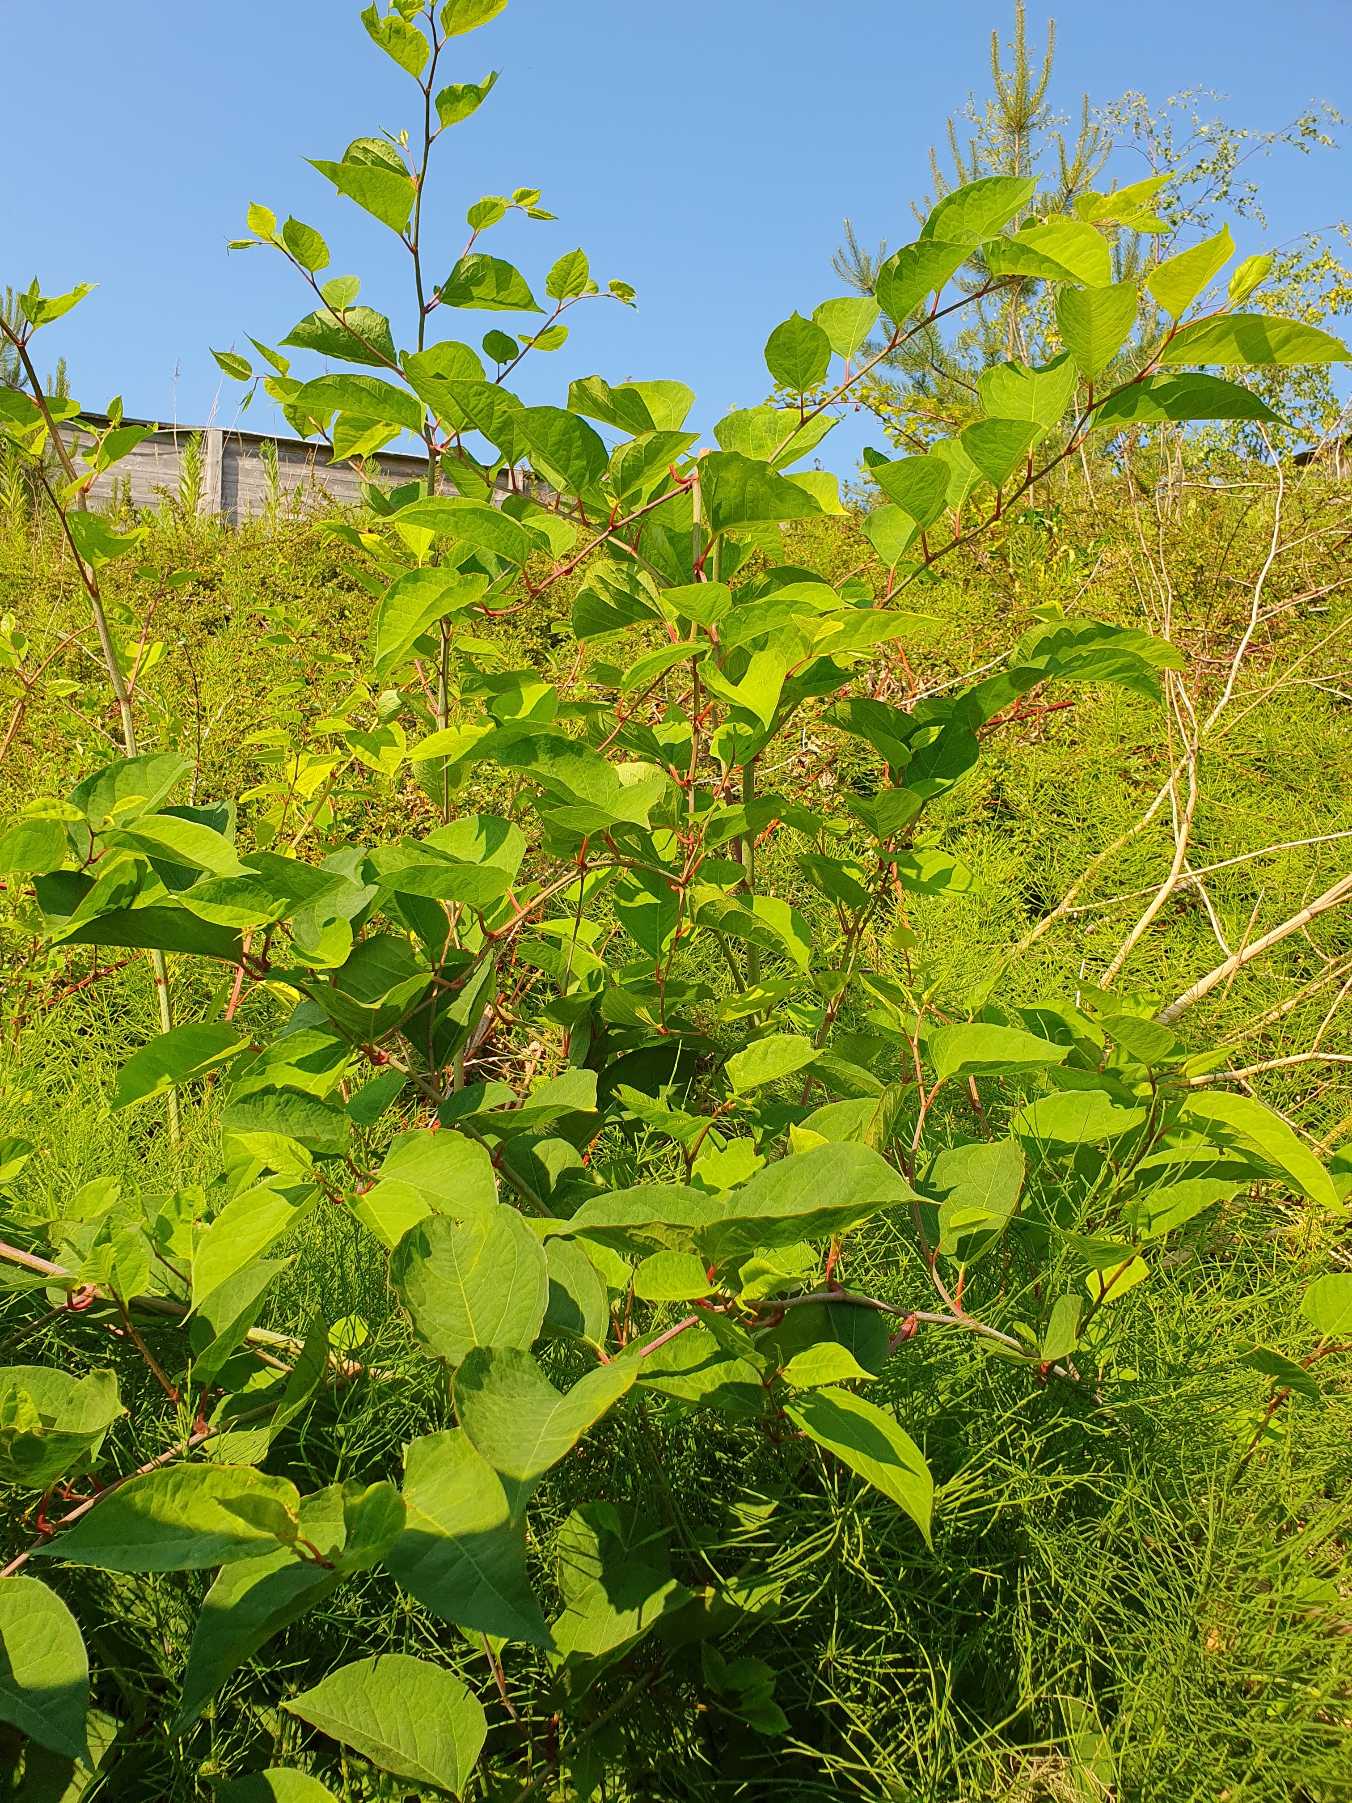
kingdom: Plantae
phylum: Tracheophyta
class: Magnoliopsida
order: Caryophyllales
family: Polygonaceae
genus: Reynoutria
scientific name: Reynoutria japonica
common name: Japan-pileurt
